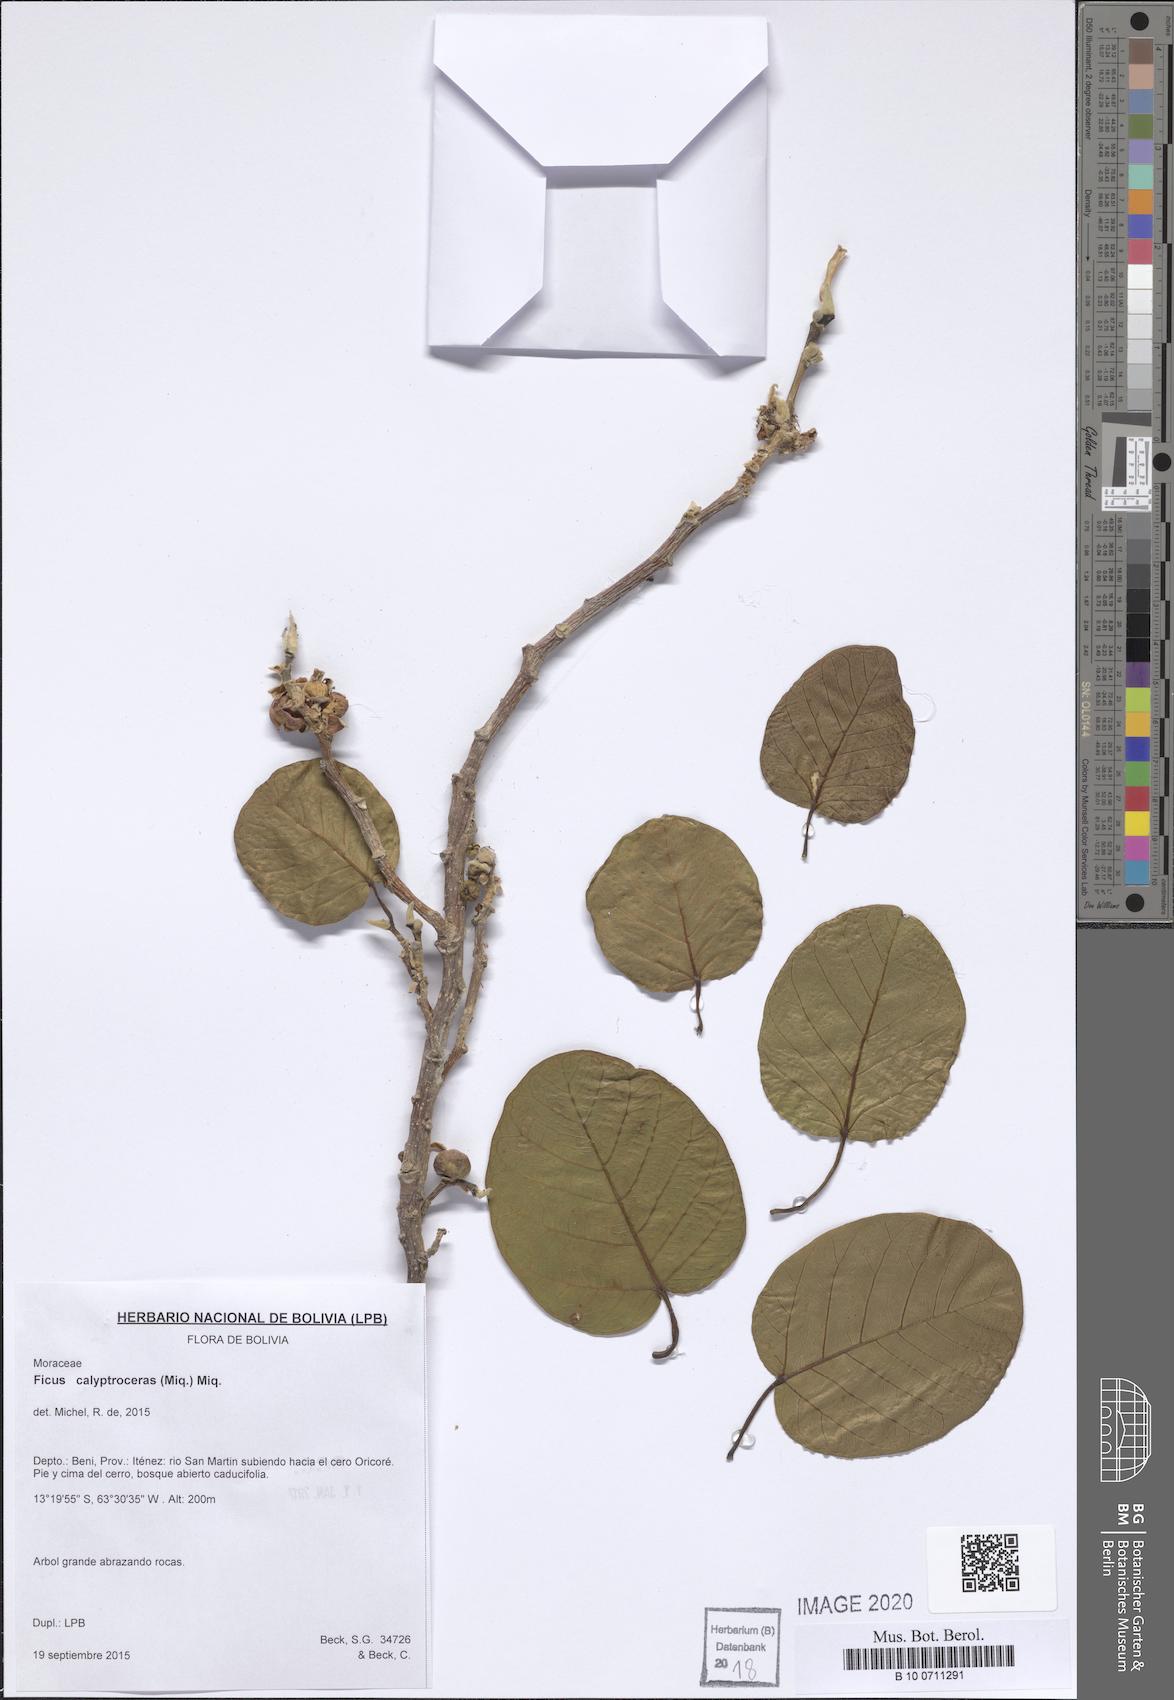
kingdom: Plantae
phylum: Tracheophyta
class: Magnoliopsida
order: Rosales
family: Moraceae
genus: Ficus
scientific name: Ficus calyptroceras
